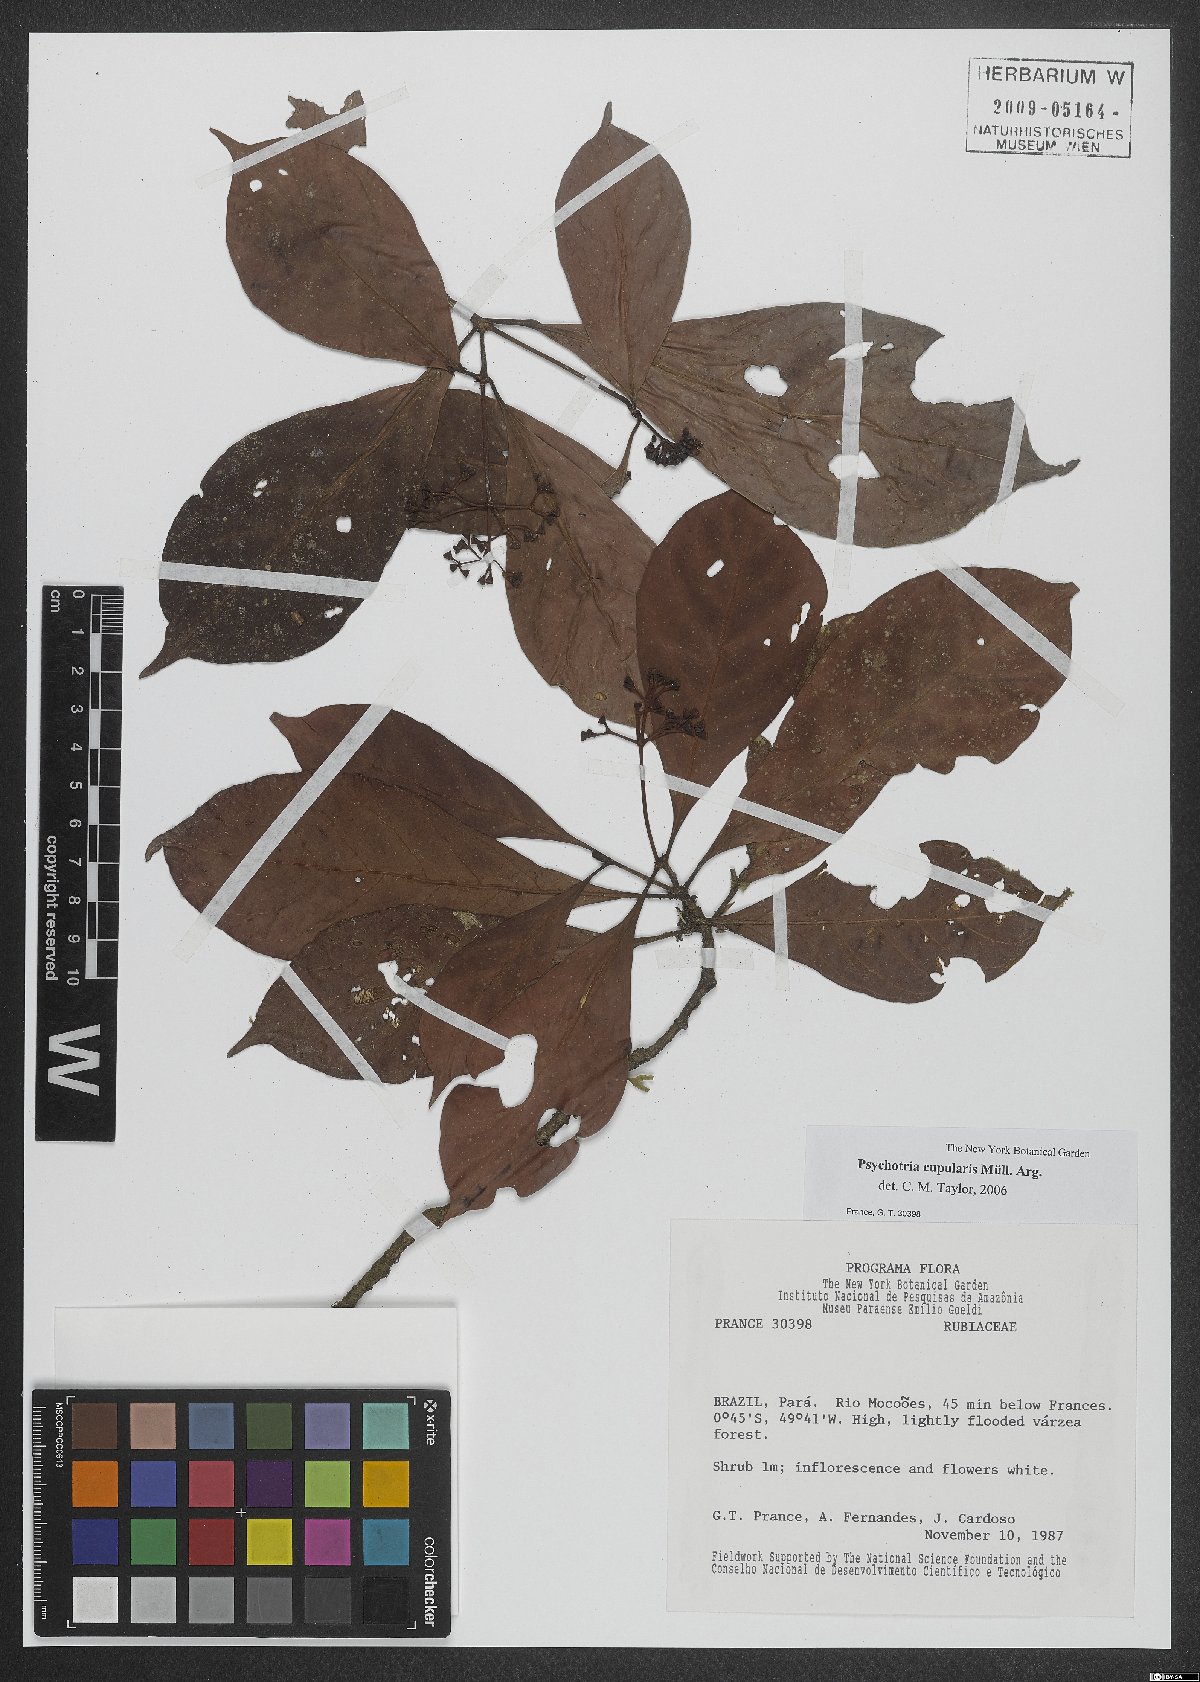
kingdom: Plantae
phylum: Tracheophyta
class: Magnoliopsida
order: Gentianales
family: Rubiaceae
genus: Psychotria
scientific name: Psychotria cupularis
